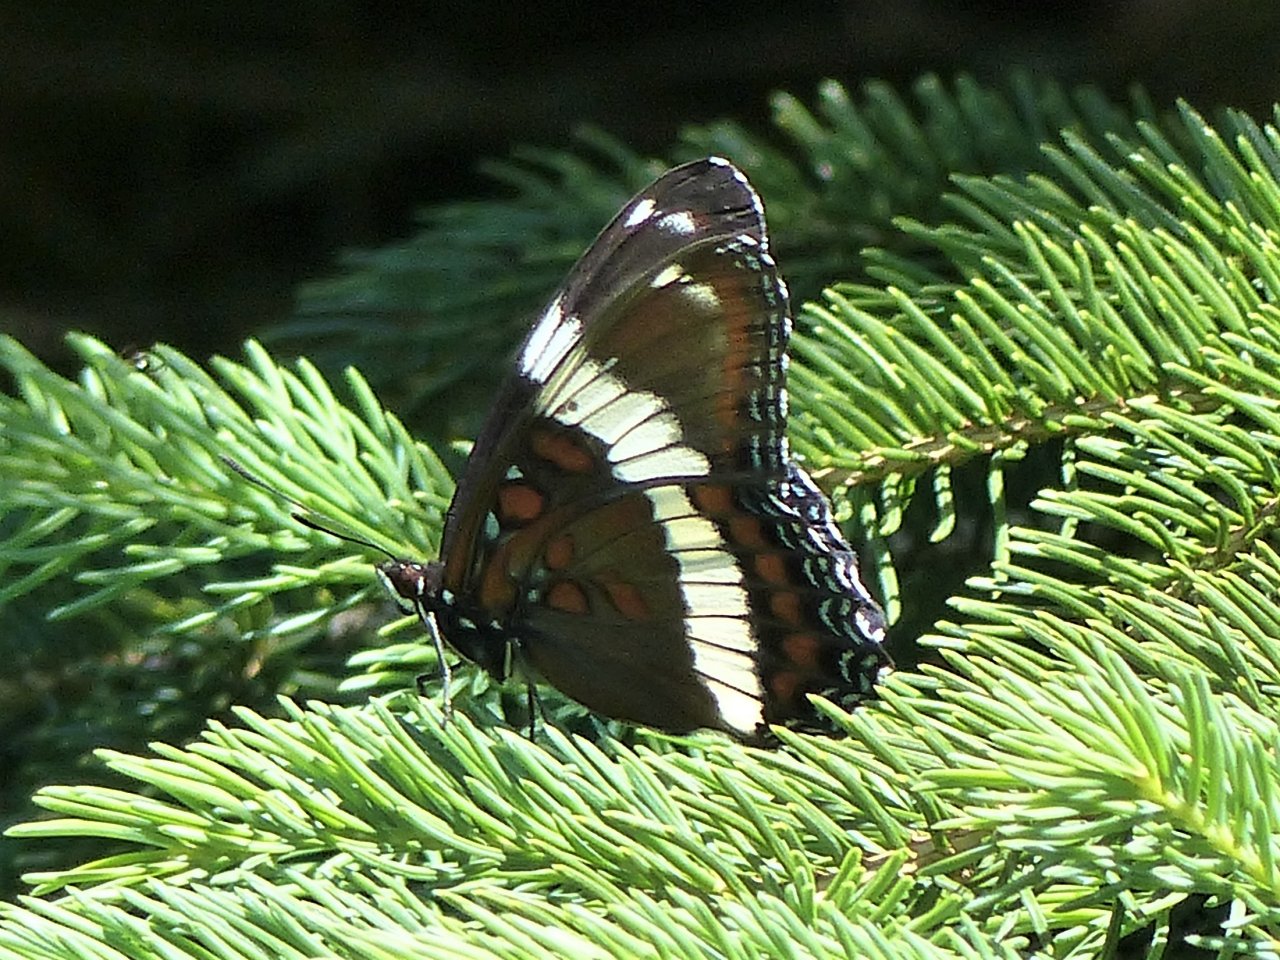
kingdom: Animalia
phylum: Arthropoda
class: Insecta
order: Lepidoptera
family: Nymphalidae
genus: Limenitis
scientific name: Limenitis arthemis
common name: Red-spotted Admiral
